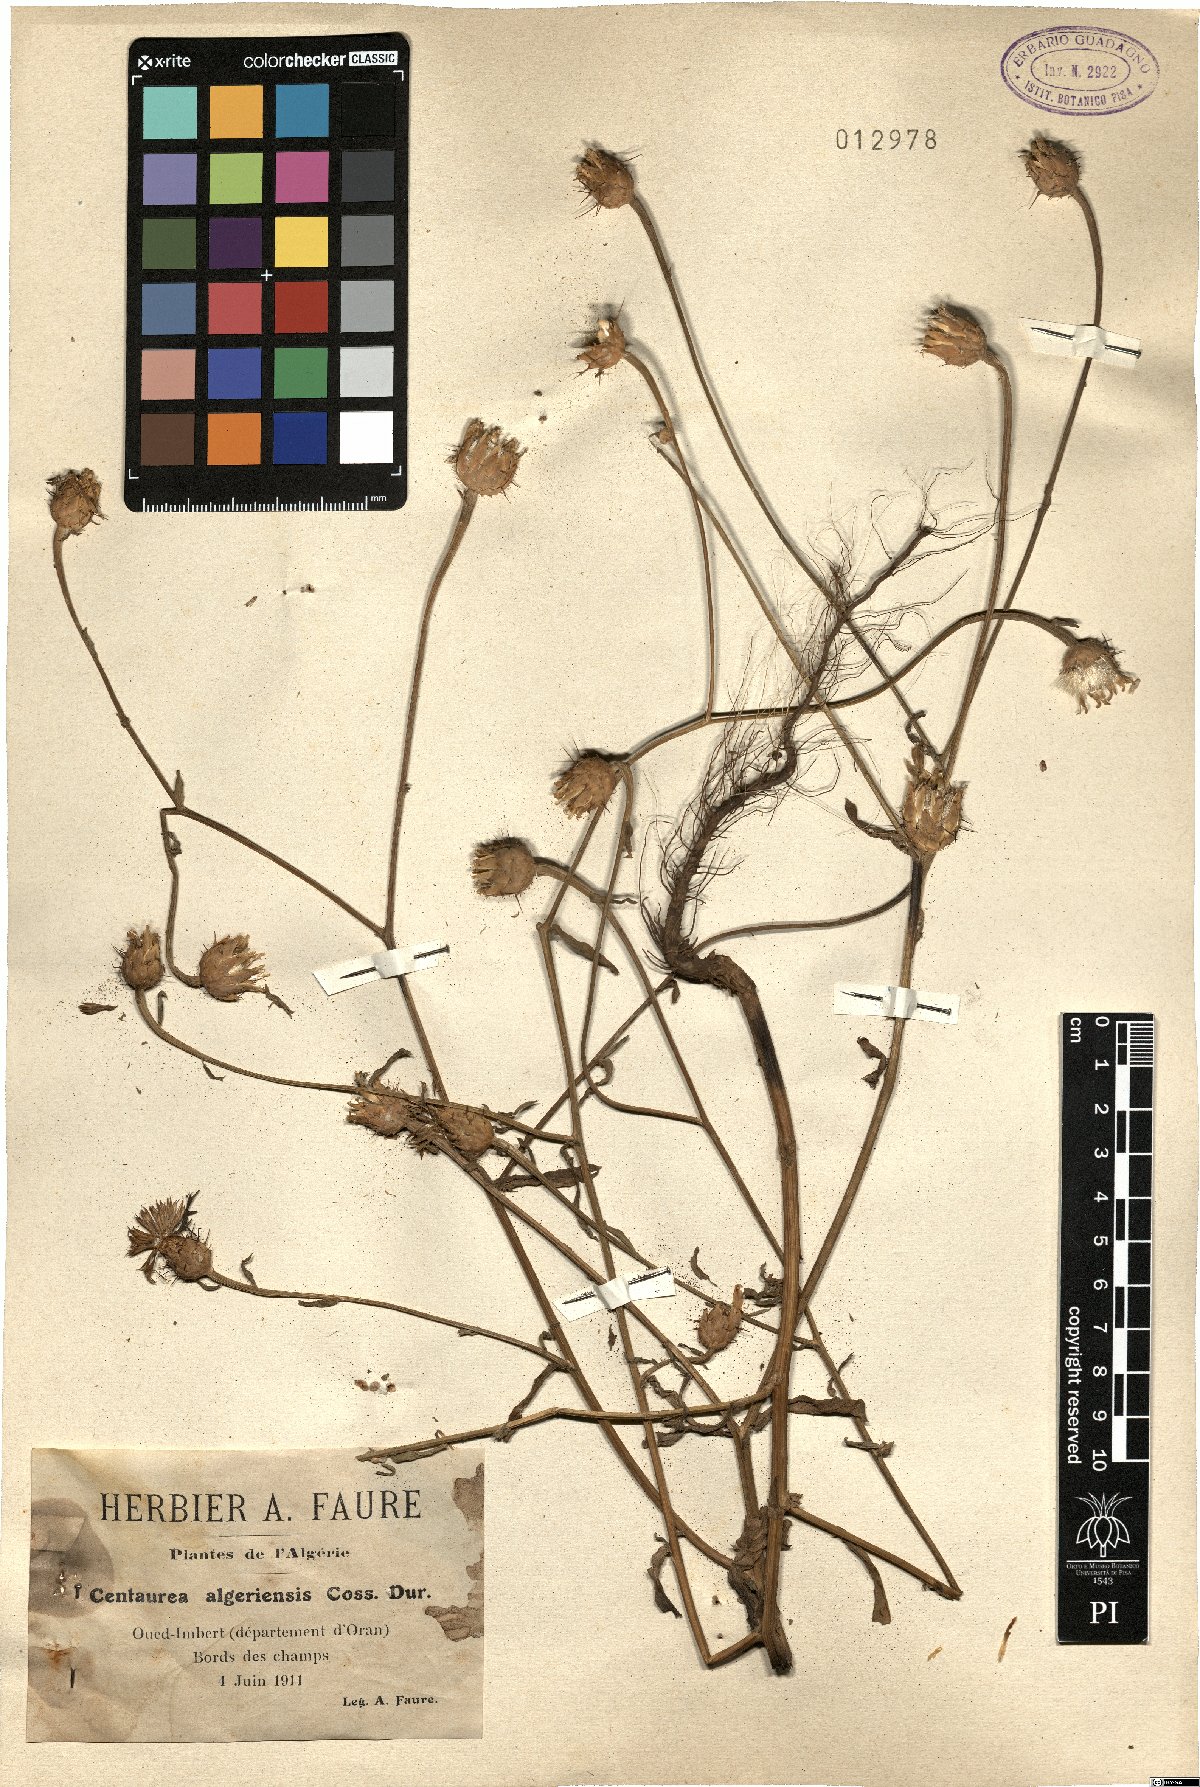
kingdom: Plantae
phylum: Tracheophyta
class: Magnoliopsida
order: Asterales
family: Asteraceae
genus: Centaurea
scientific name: Centaurea diluta
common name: Lesser star-thistle
